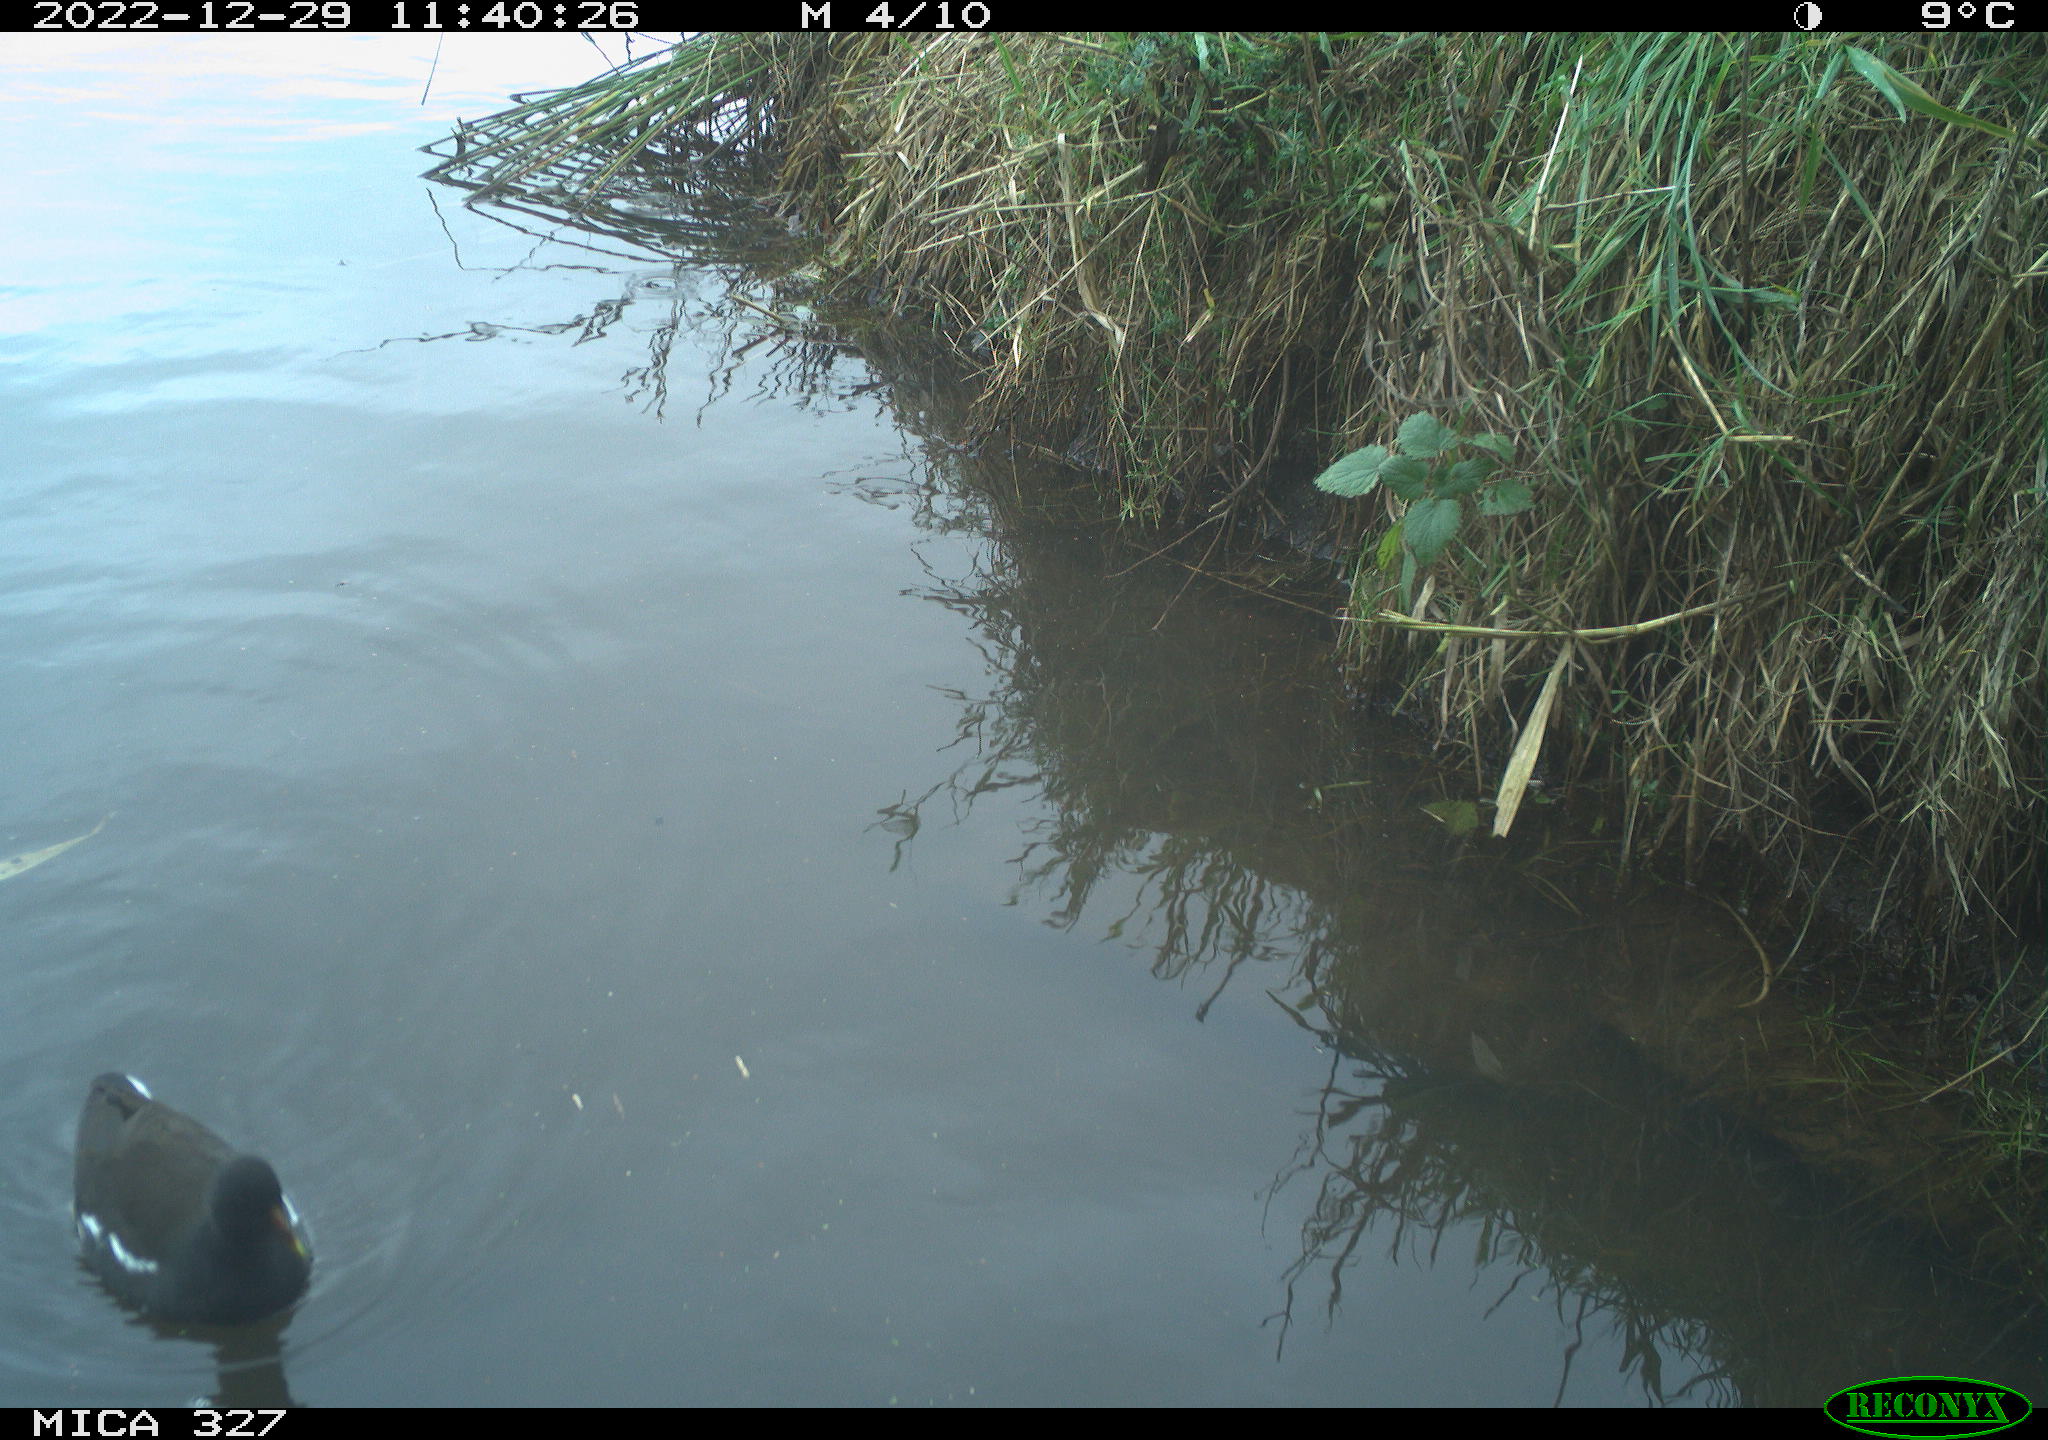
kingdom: Animalia
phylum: Chordata
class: Aves
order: Gruiformes
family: Rallidae
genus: Gallinula
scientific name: Gallinula chloropus
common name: Common moorhen
